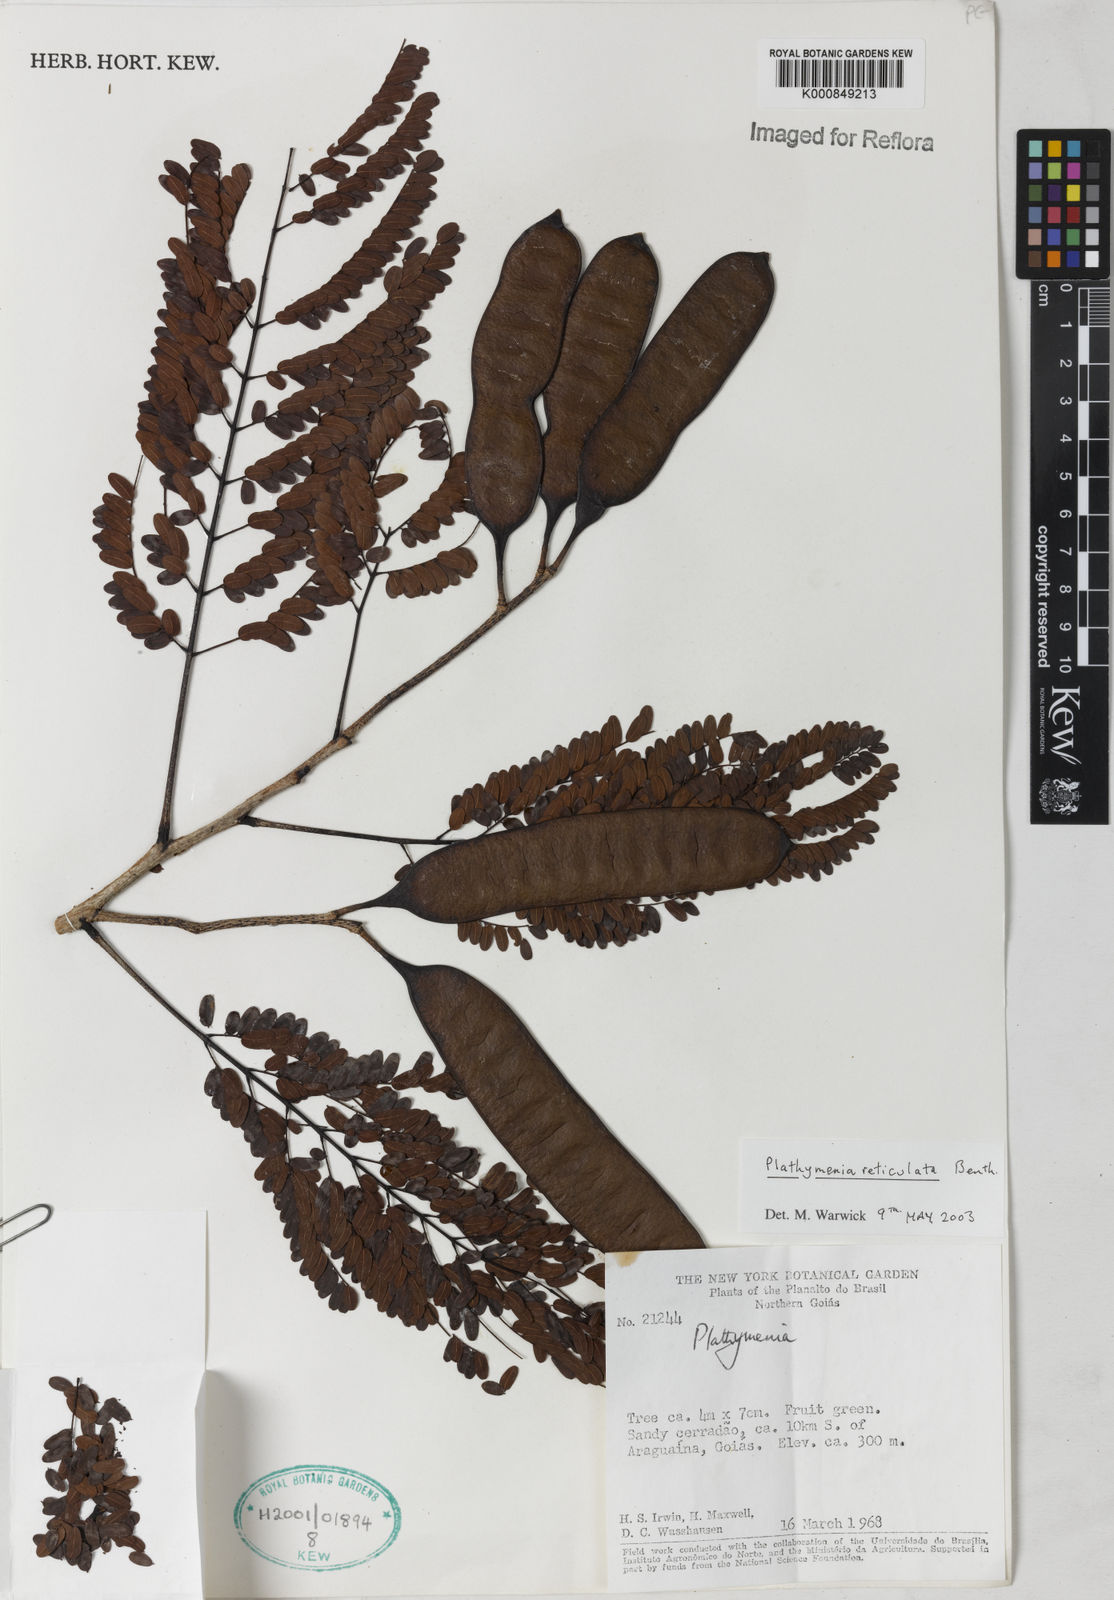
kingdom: Plantae
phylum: Tracheophyta
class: Magnoliopsida
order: Fabales
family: Fabaceae
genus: Plathymenia
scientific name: Plathymenia reticulata
